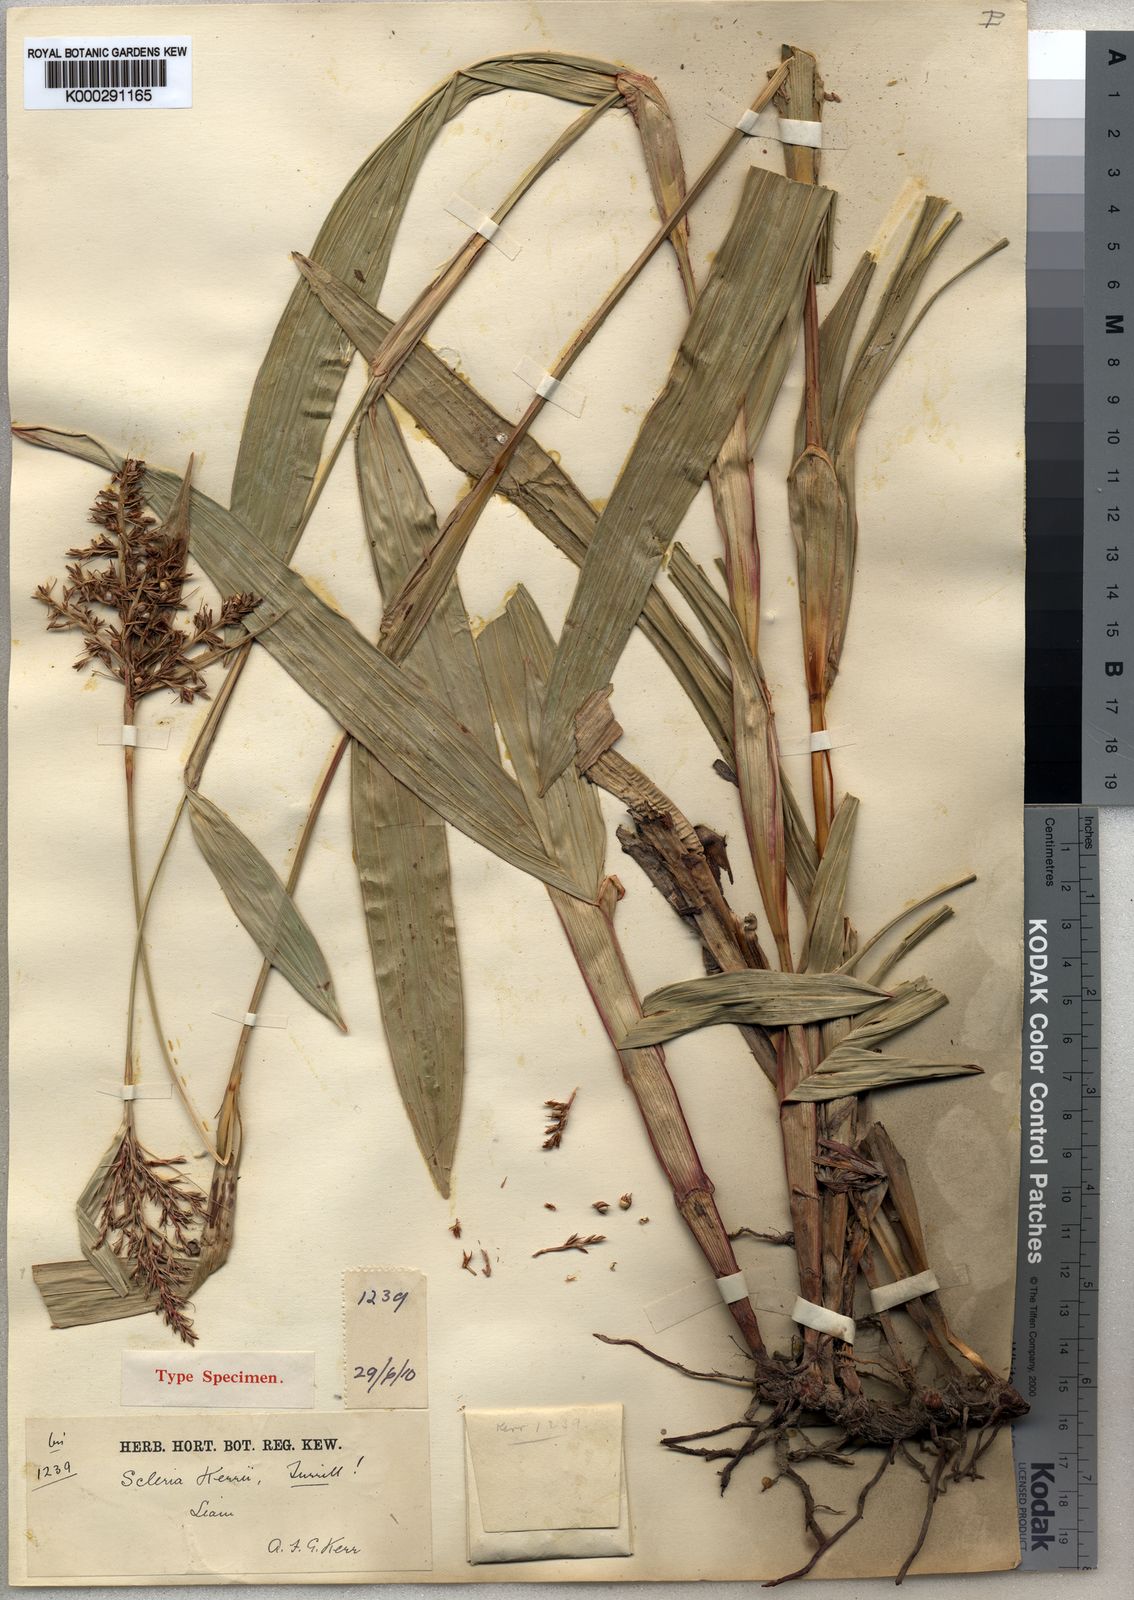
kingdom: Plantae
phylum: Tracheophyta
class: Liliopsida
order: Poales
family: Cyperaceae
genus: Scleria
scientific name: Scleria kerrii
